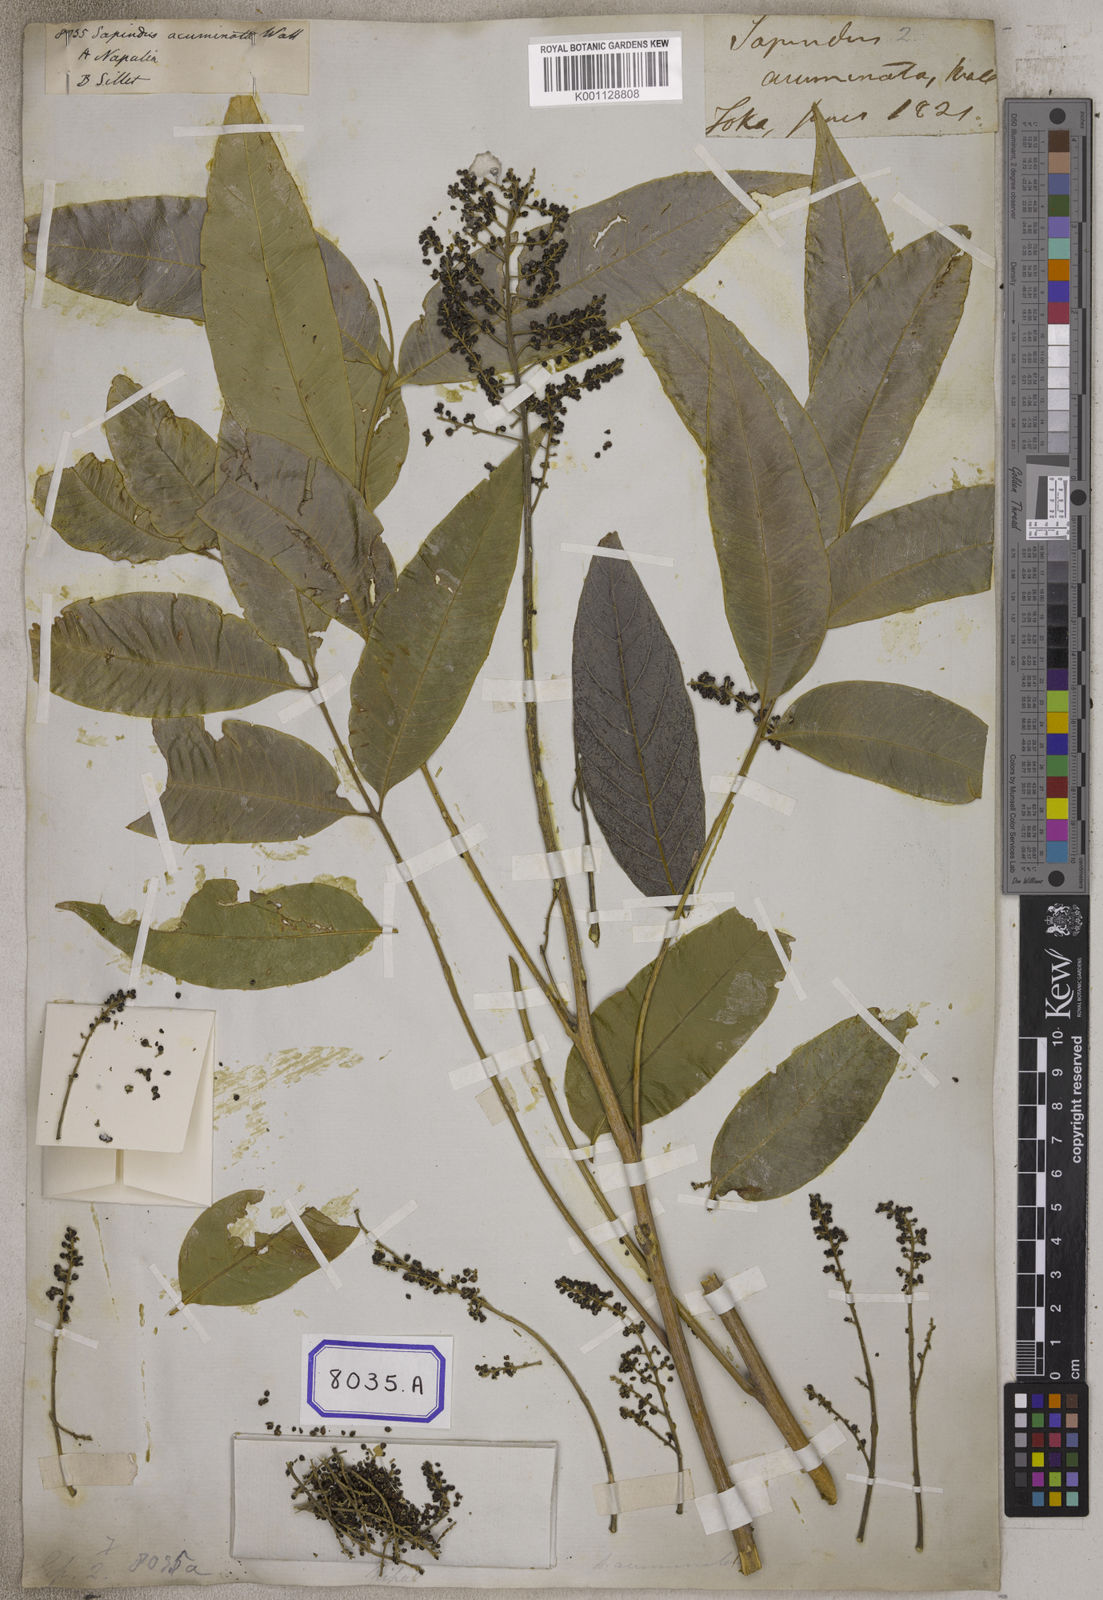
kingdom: Plantae
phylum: Tracheophyta
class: Magnoliopsida
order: Sapindales
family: Sapindaceae
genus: Sapindus
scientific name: Sapindus
